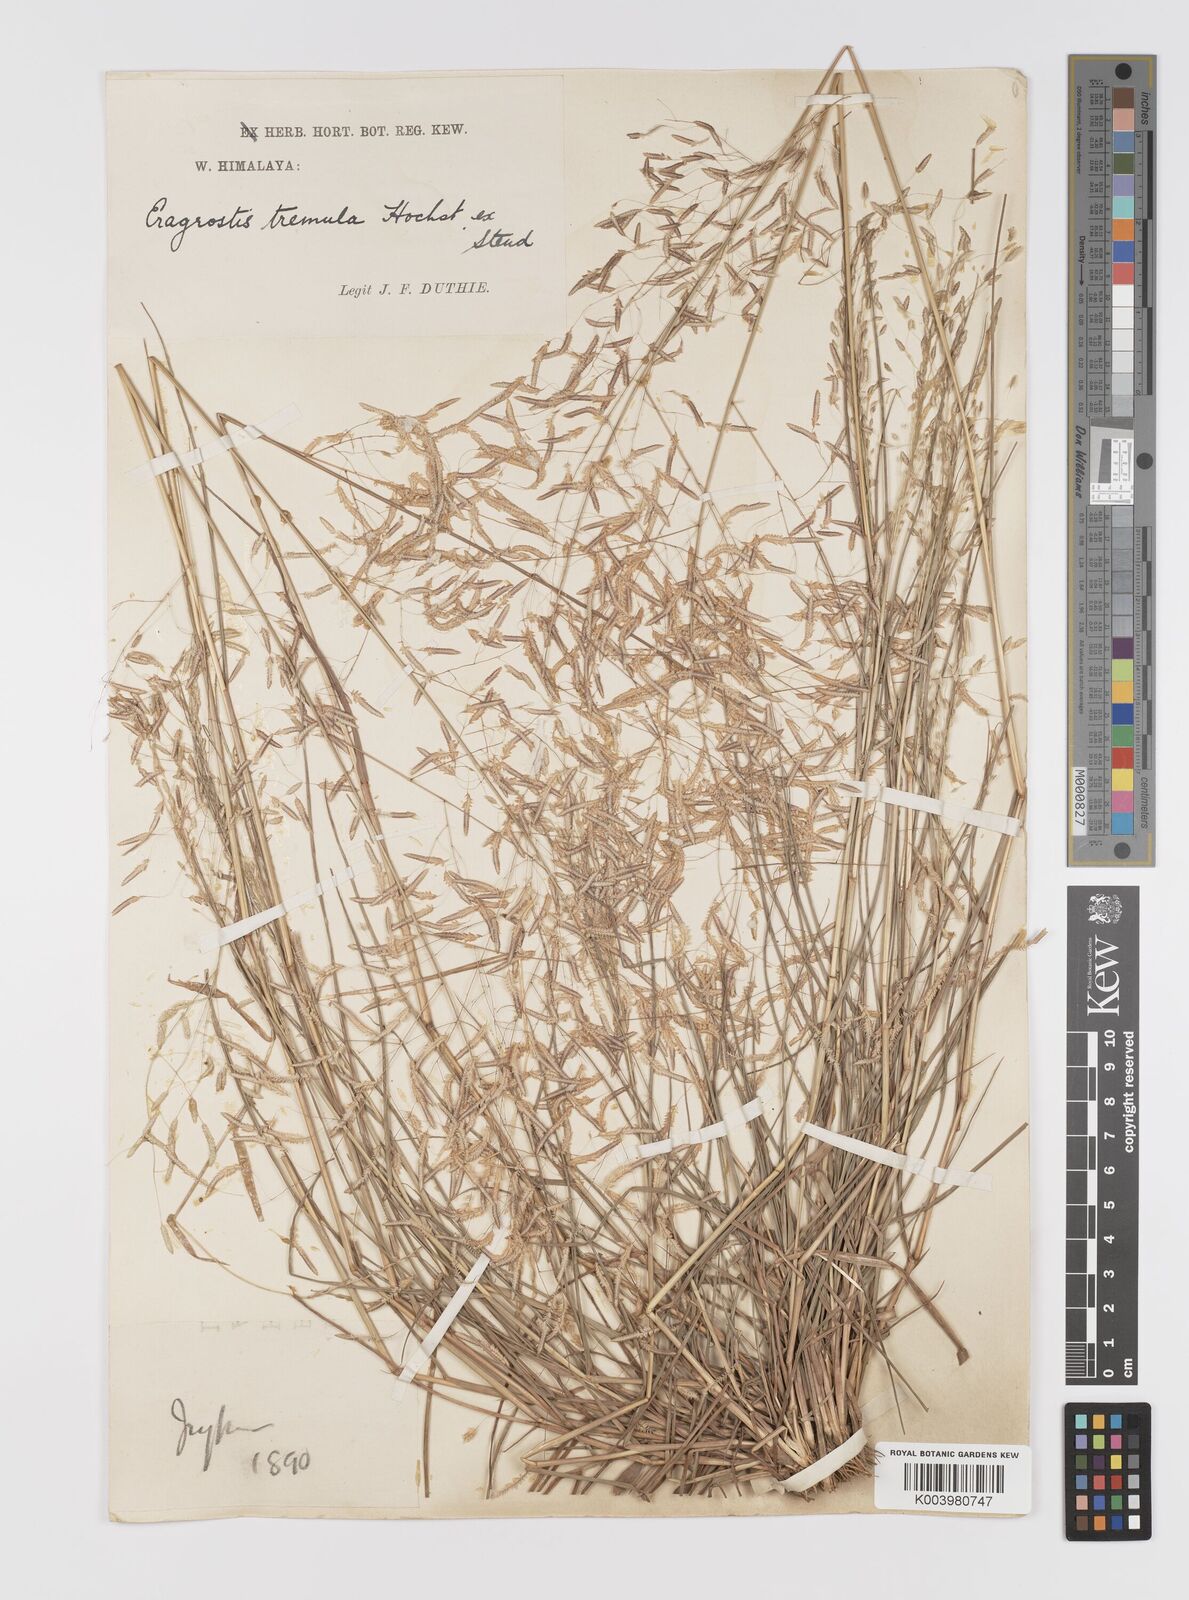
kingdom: Plantae
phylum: Tracheophyta
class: Liliopsida
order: Poales
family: Poaceae
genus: Eragrostis
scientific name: Eragrostis tremula
